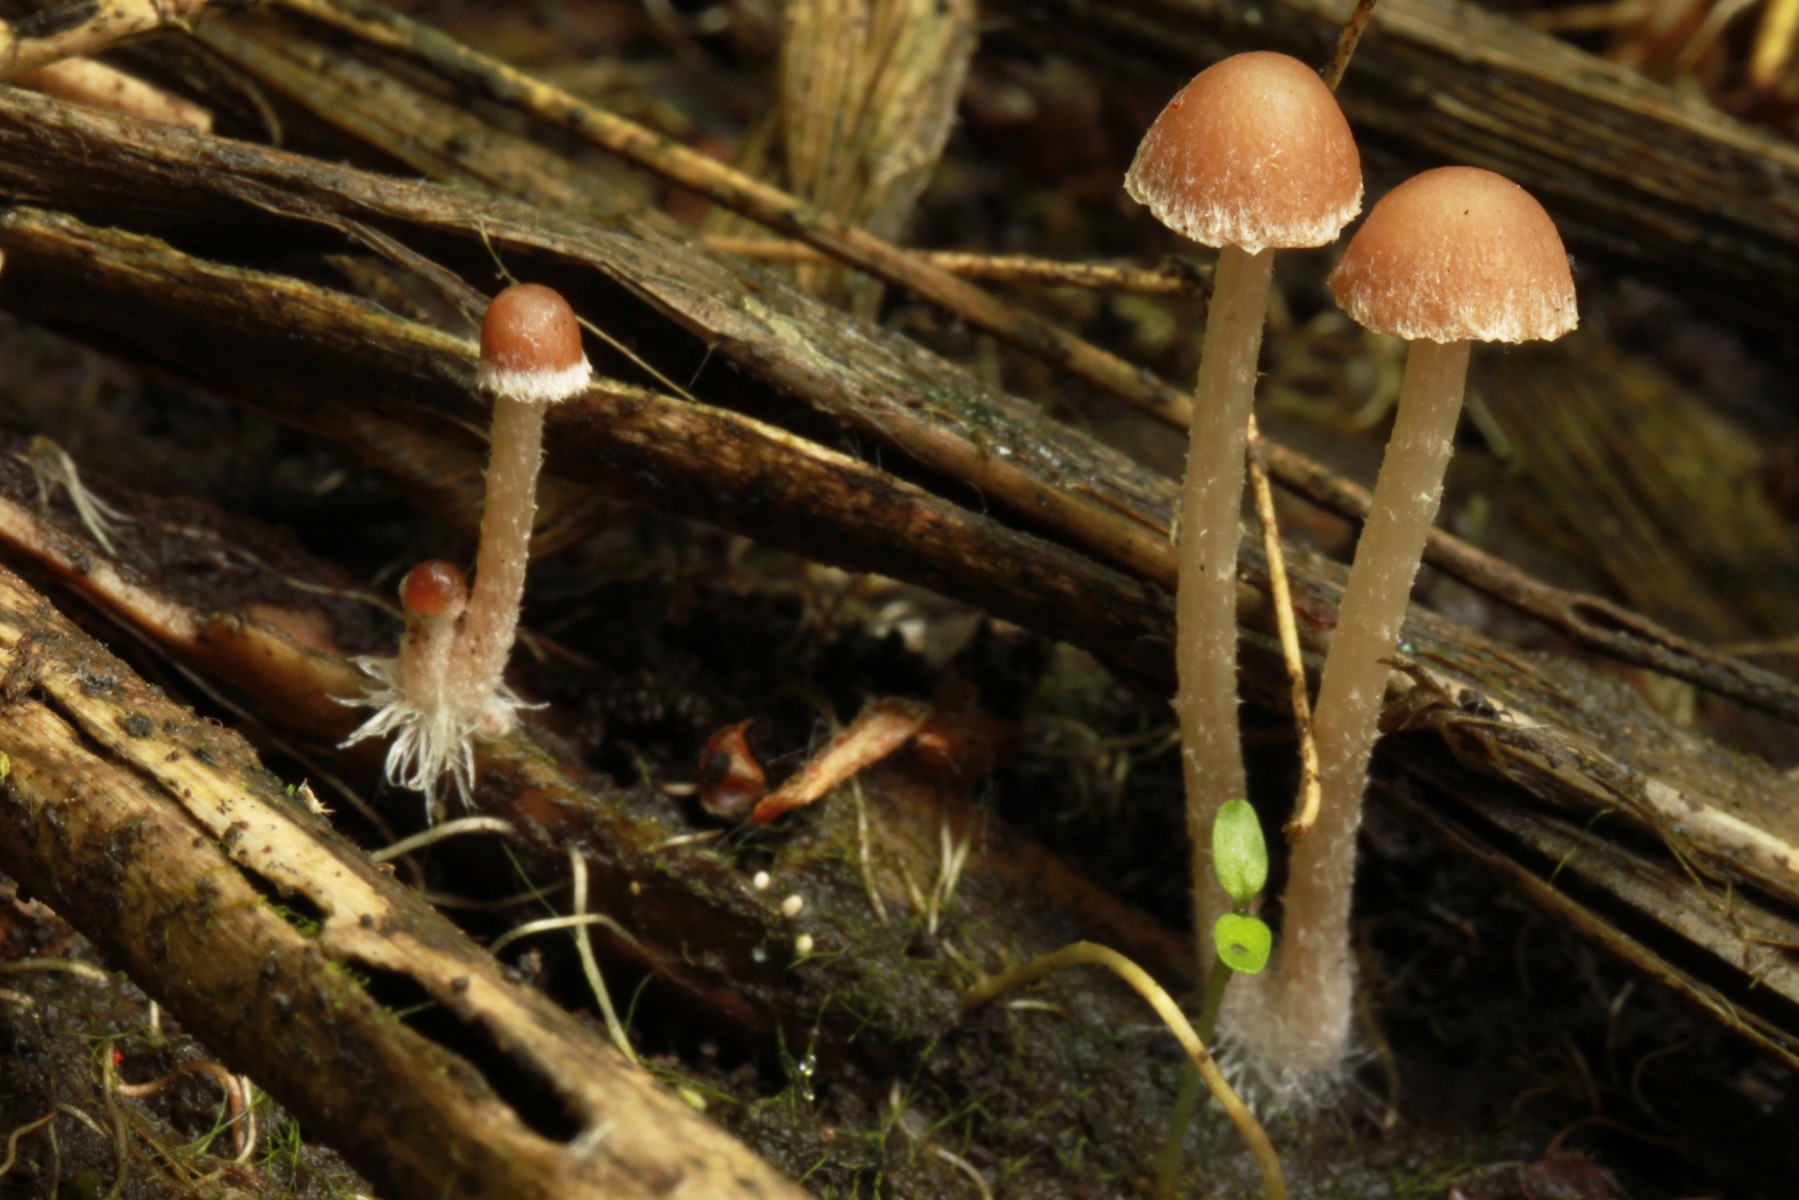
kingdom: Fungi
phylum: Basidiomycota
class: Agaricomycetes
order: Agaricales
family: Psathyrellaceae
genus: Psathyrella
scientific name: Psathyrella thujina
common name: staude-mørkhat
